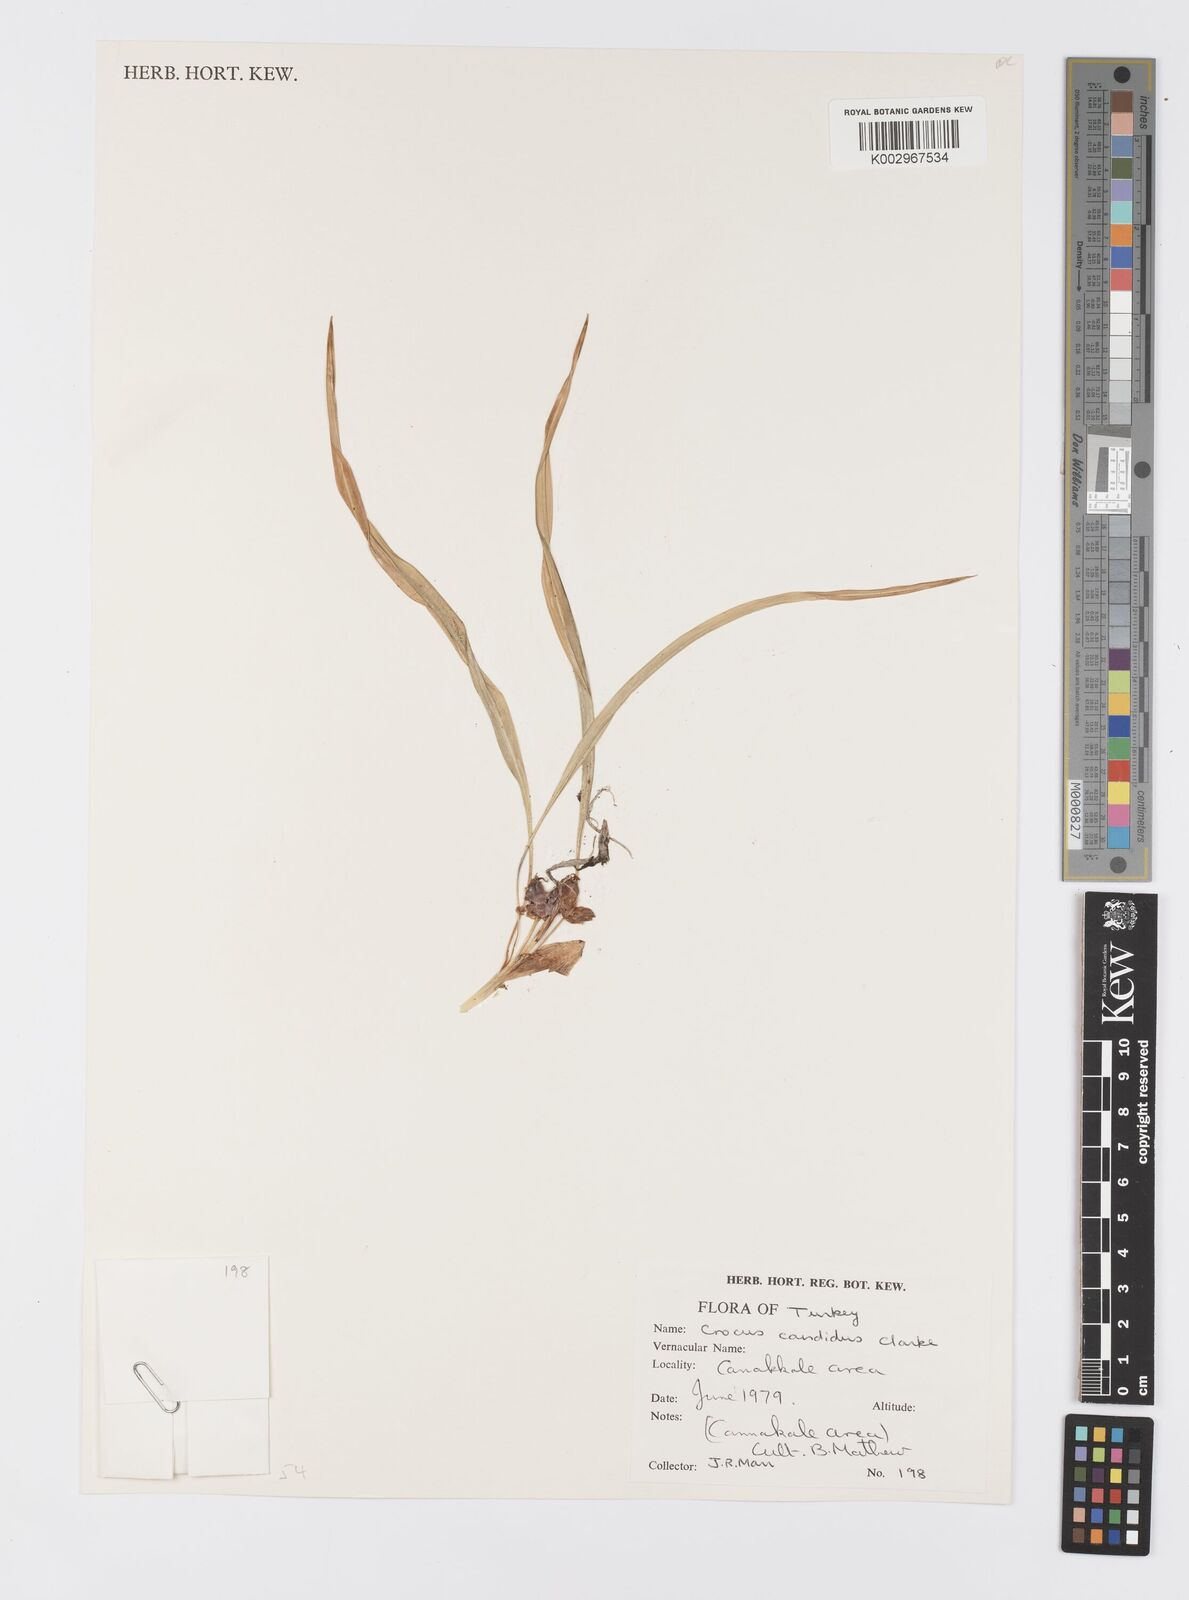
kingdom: Plantae
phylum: Tracheophyta
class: Liliopsida
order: Asparagales
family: Iridaceae
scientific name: Iridaceae
